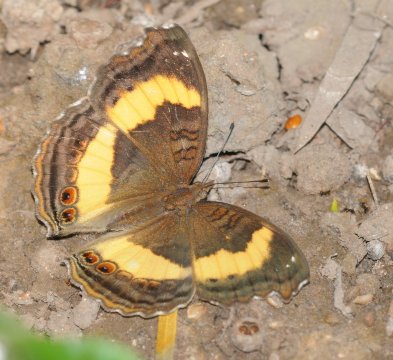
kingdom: Animalia
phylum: Arthropoda
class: Insecta
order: Lepidoptera
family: Nymphalidae
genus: Junonia
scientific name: Junonia terea
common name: Soldier Pansy
